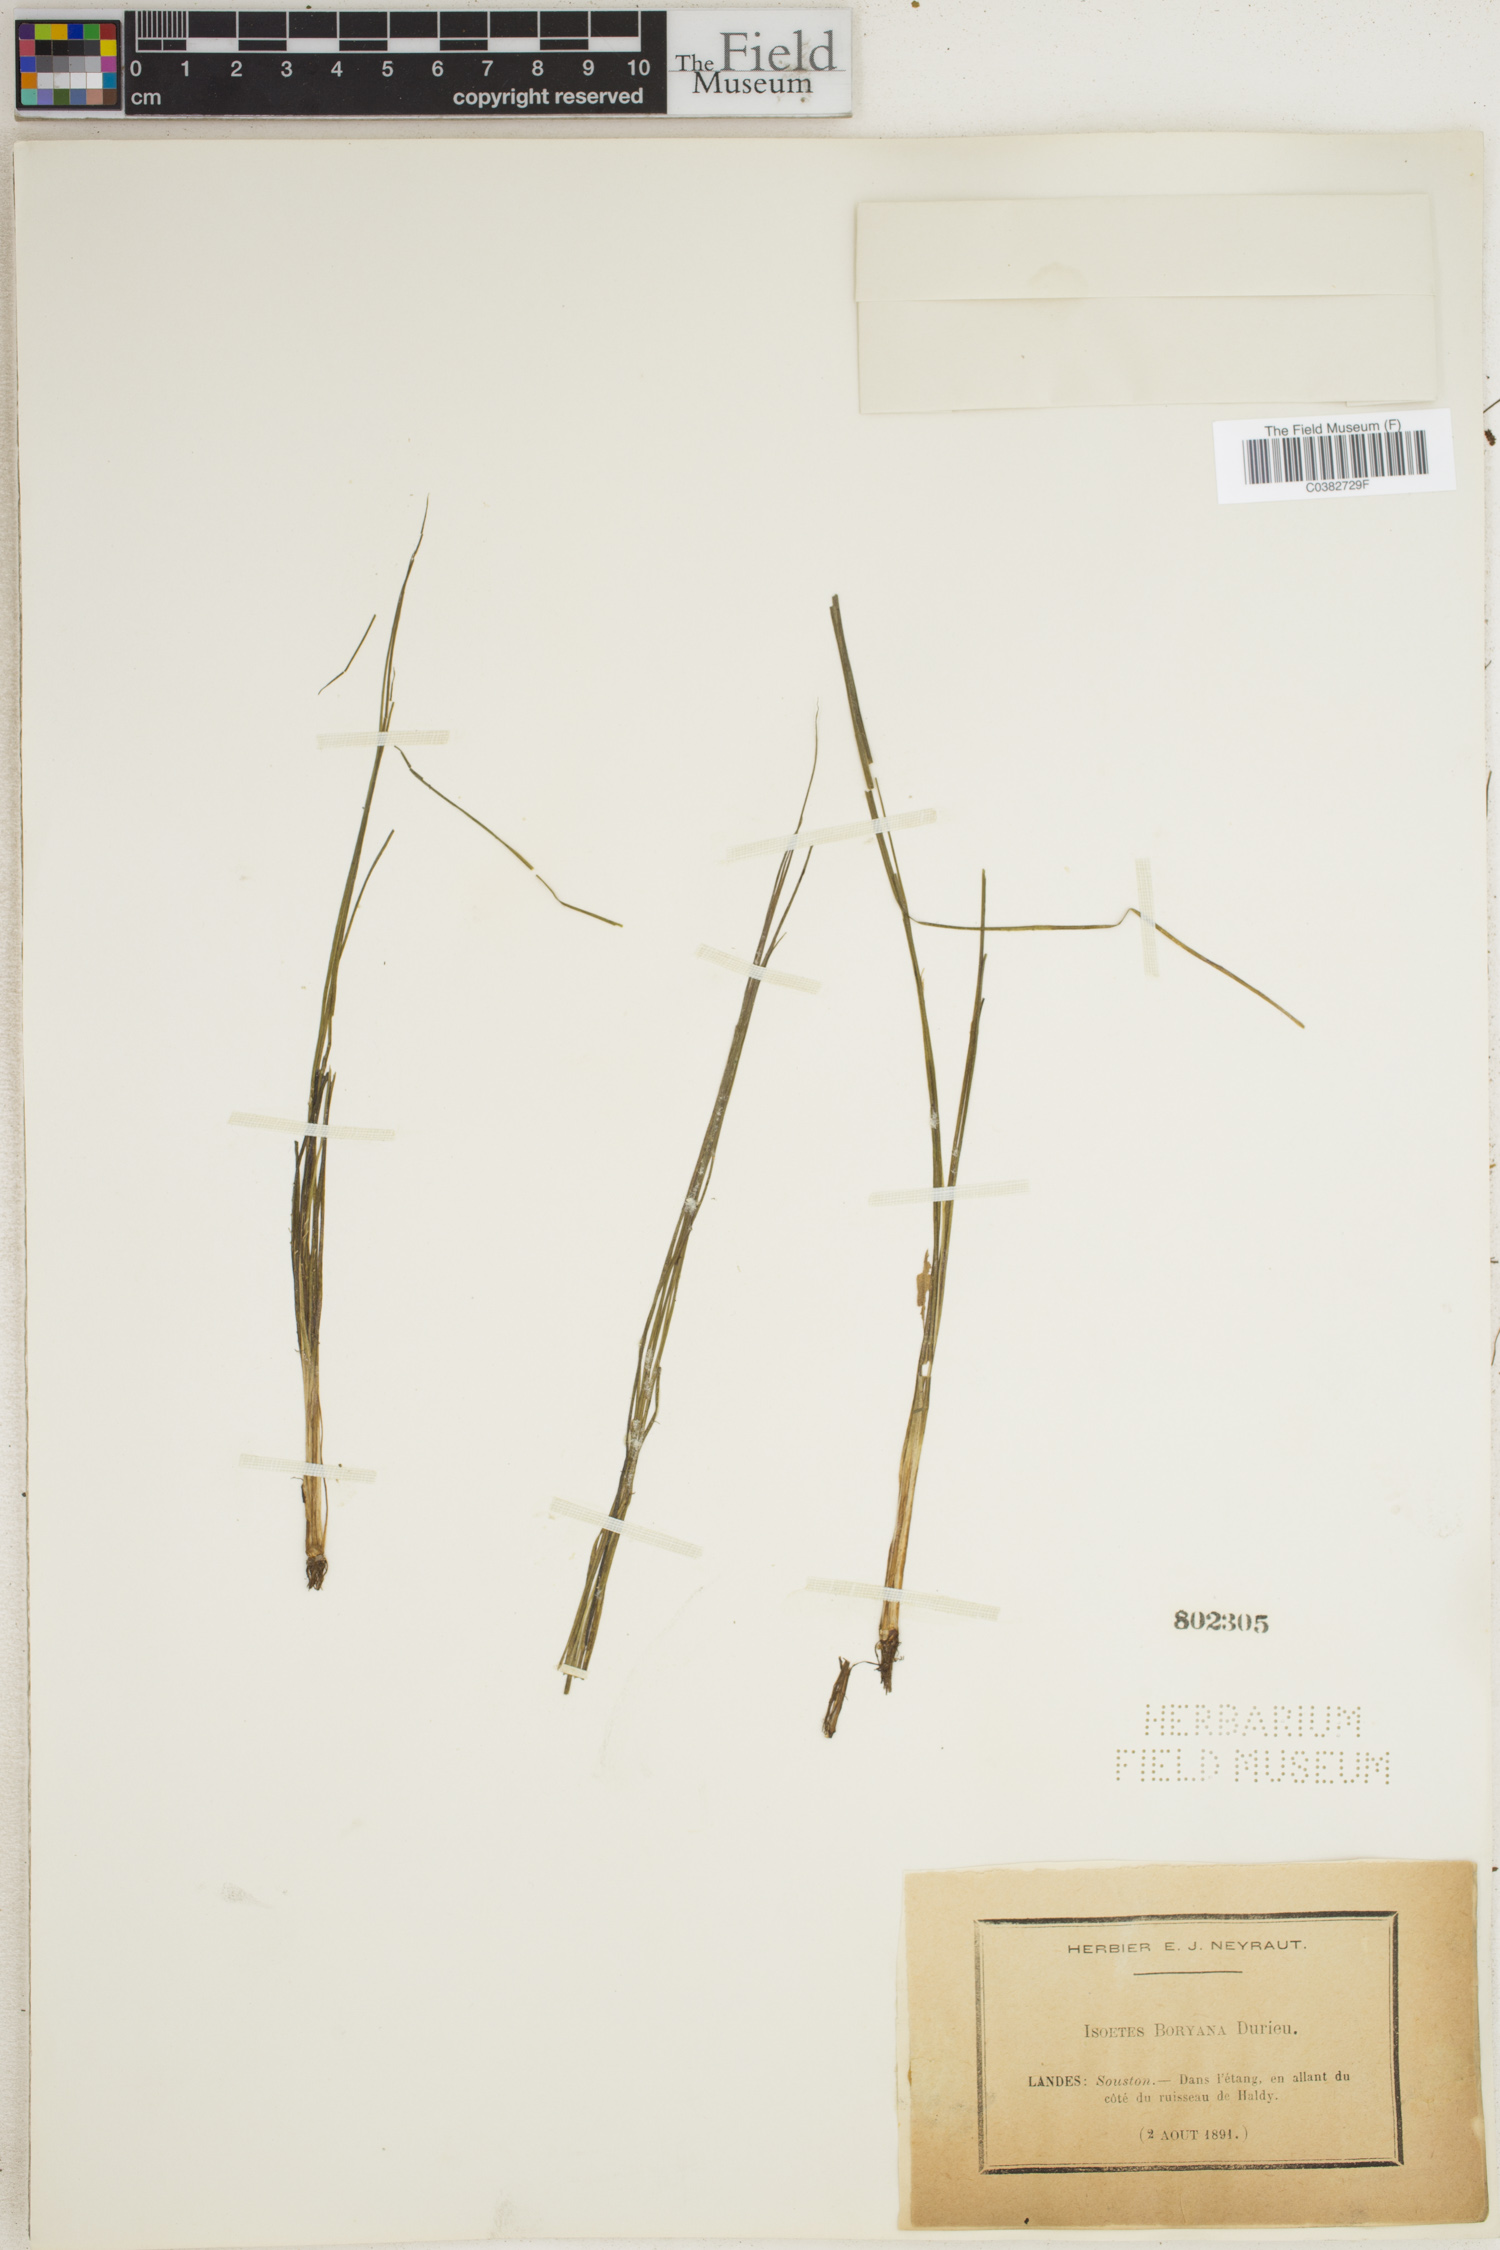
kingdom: Plantae
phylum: Tracheophyta
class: Lycopodiopsida
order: Isoetales
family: Isoetaceae
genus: Isoetes
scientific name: Isoetes boryana
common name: Gascoyne quillwort
